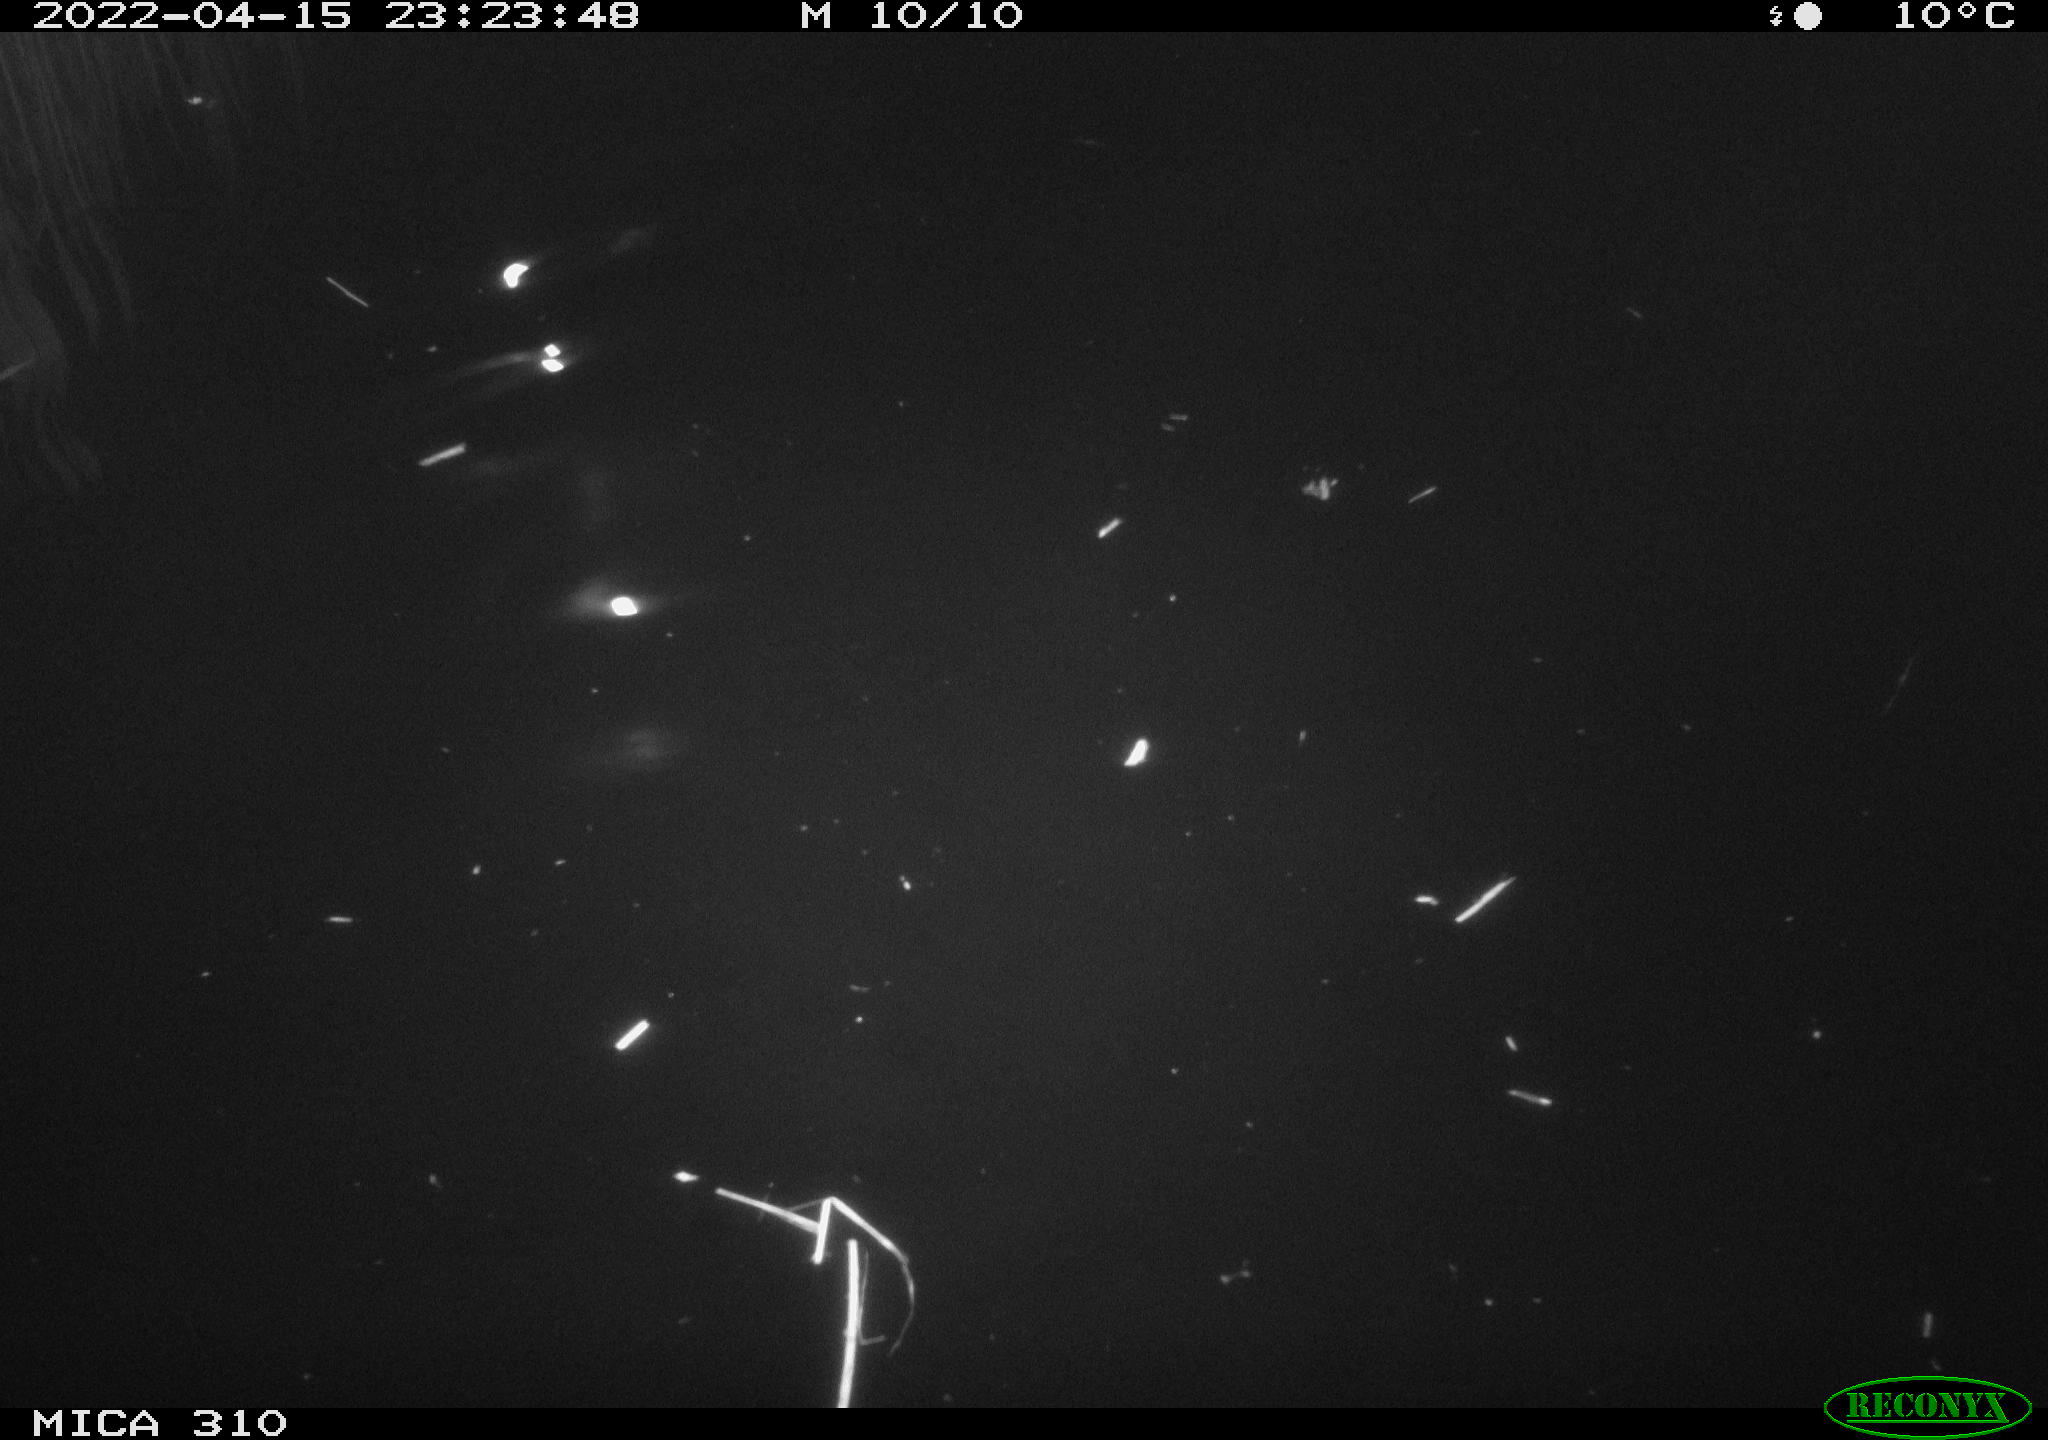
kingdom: Animalia
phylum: Chordata
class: Aves
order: Anseriformes
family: Anatidae
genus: Anas
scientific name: Anas platyrhynchos
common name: Mallard
